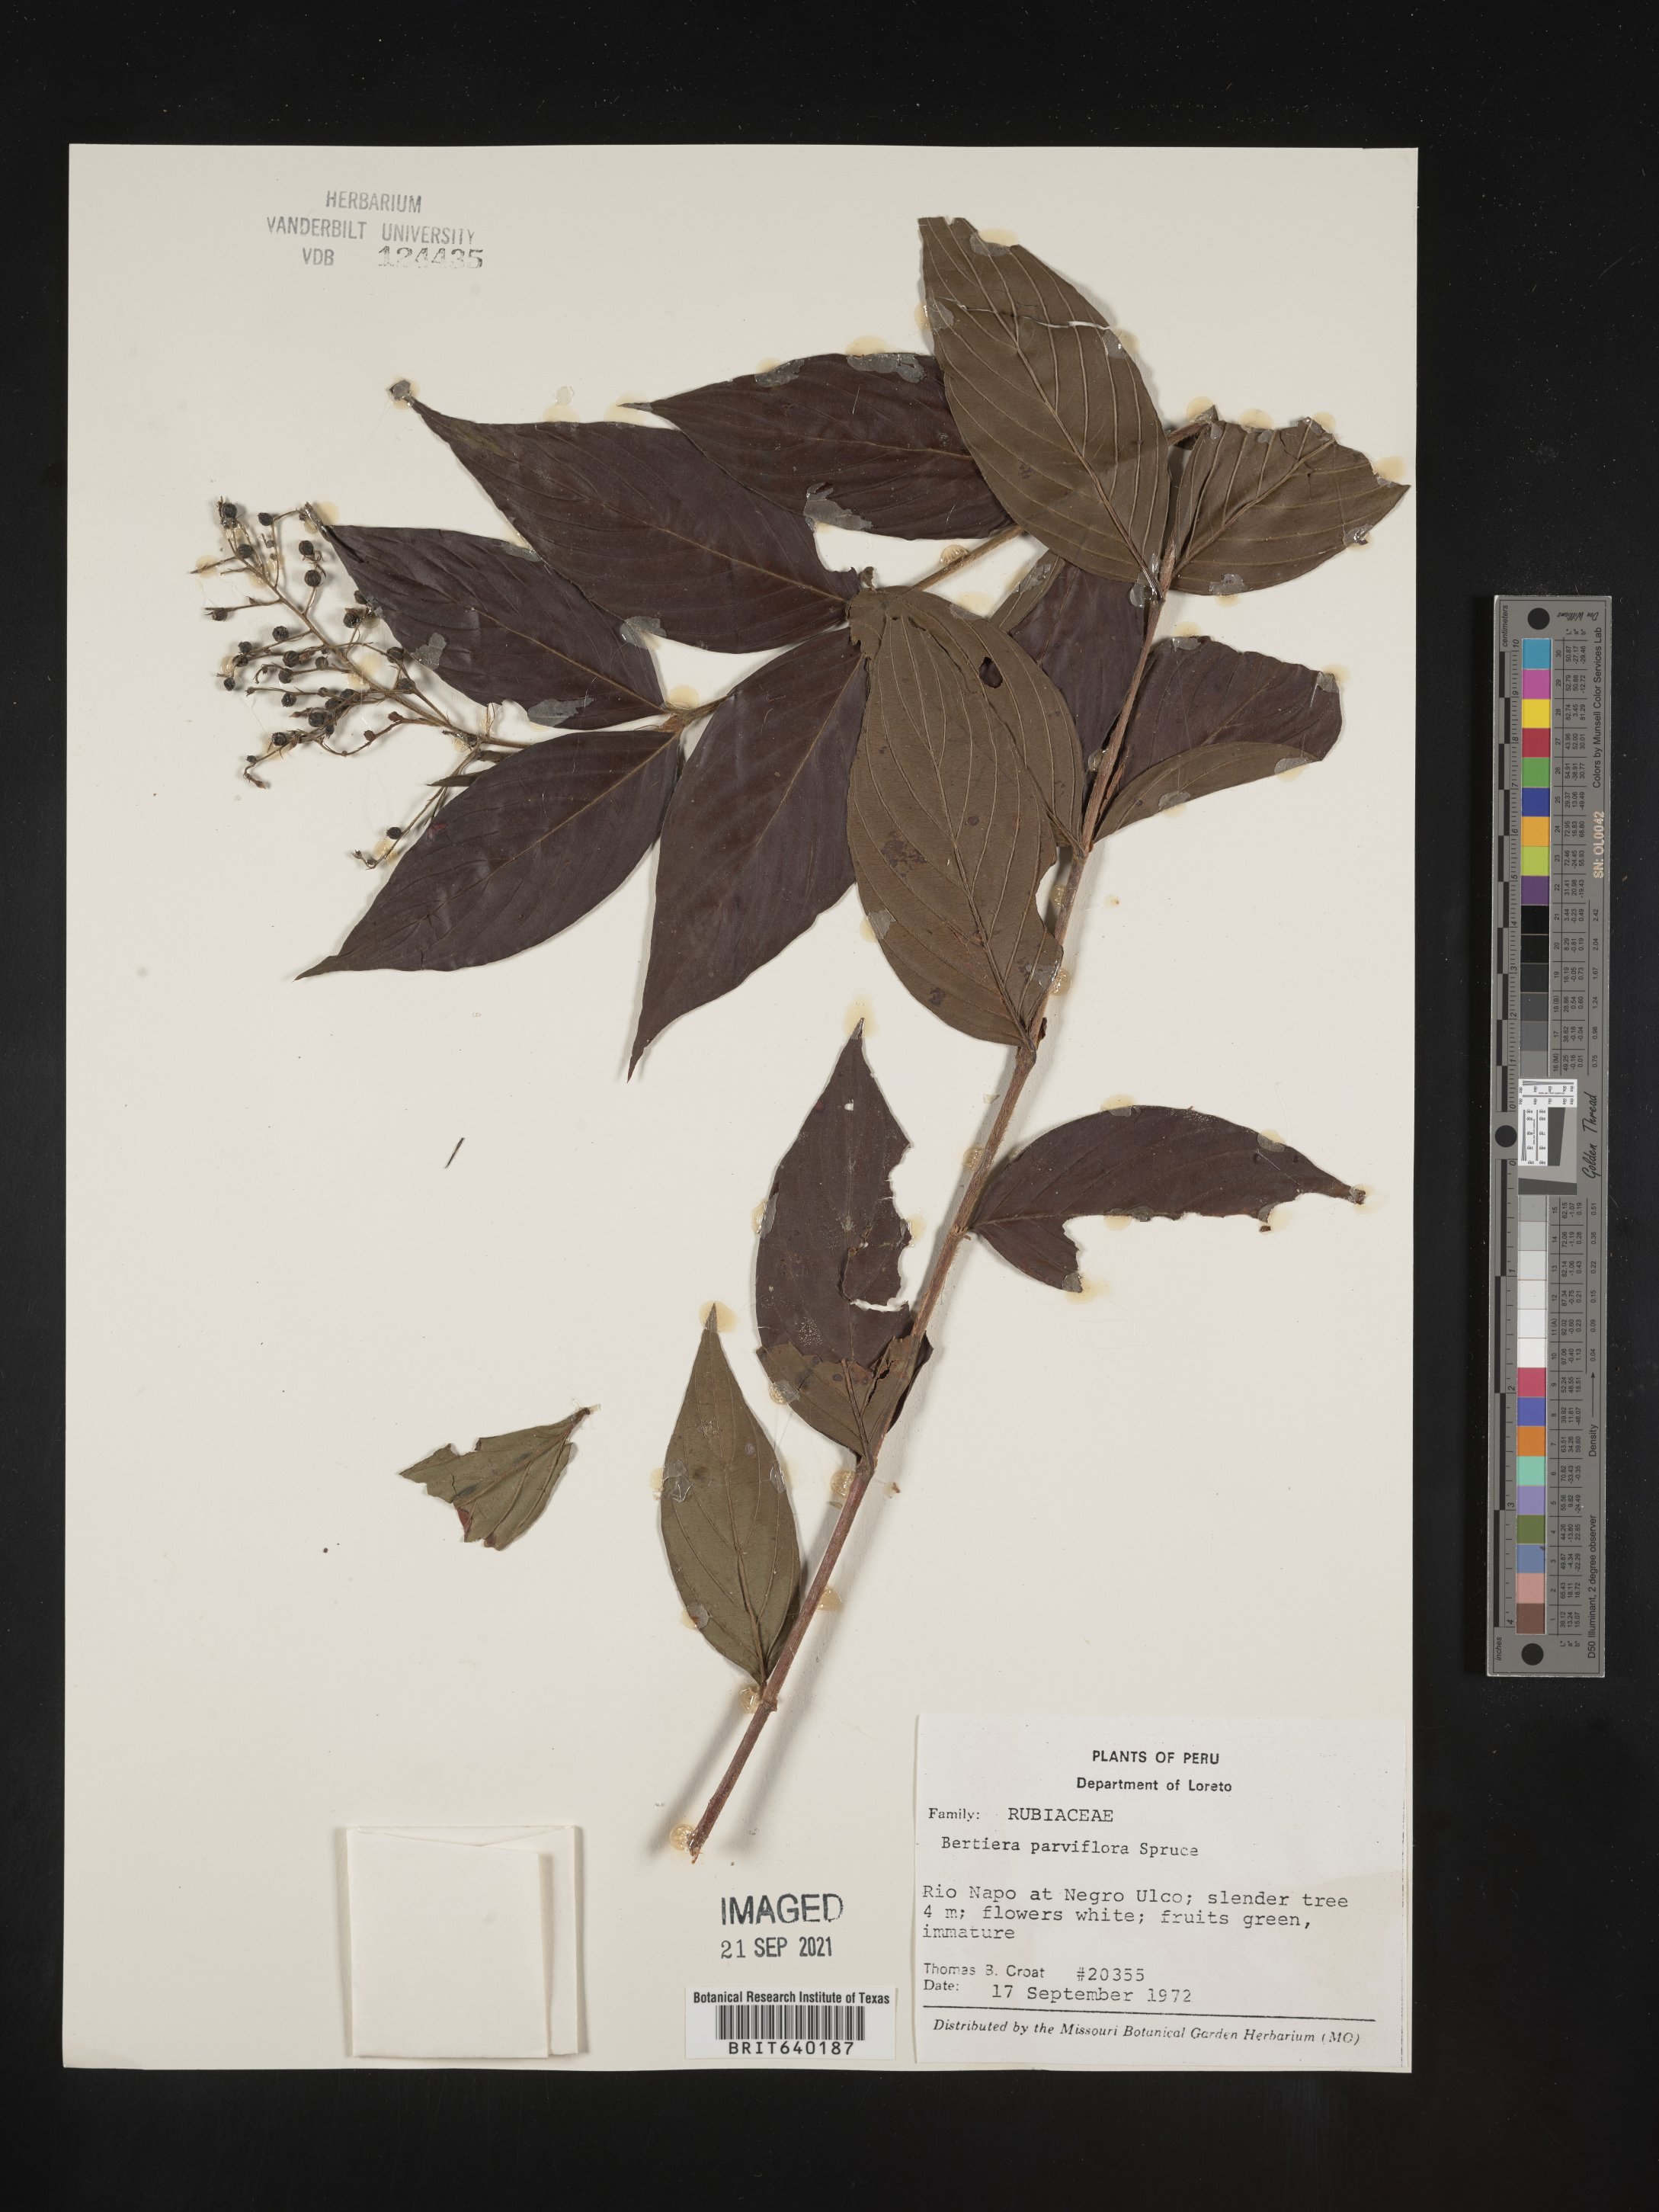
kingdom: Plantae
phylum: Tracheophyta
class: Magnoliopsida
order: Gentianales
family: Rubiaceae
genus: Bertiera
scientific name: Bertiera
